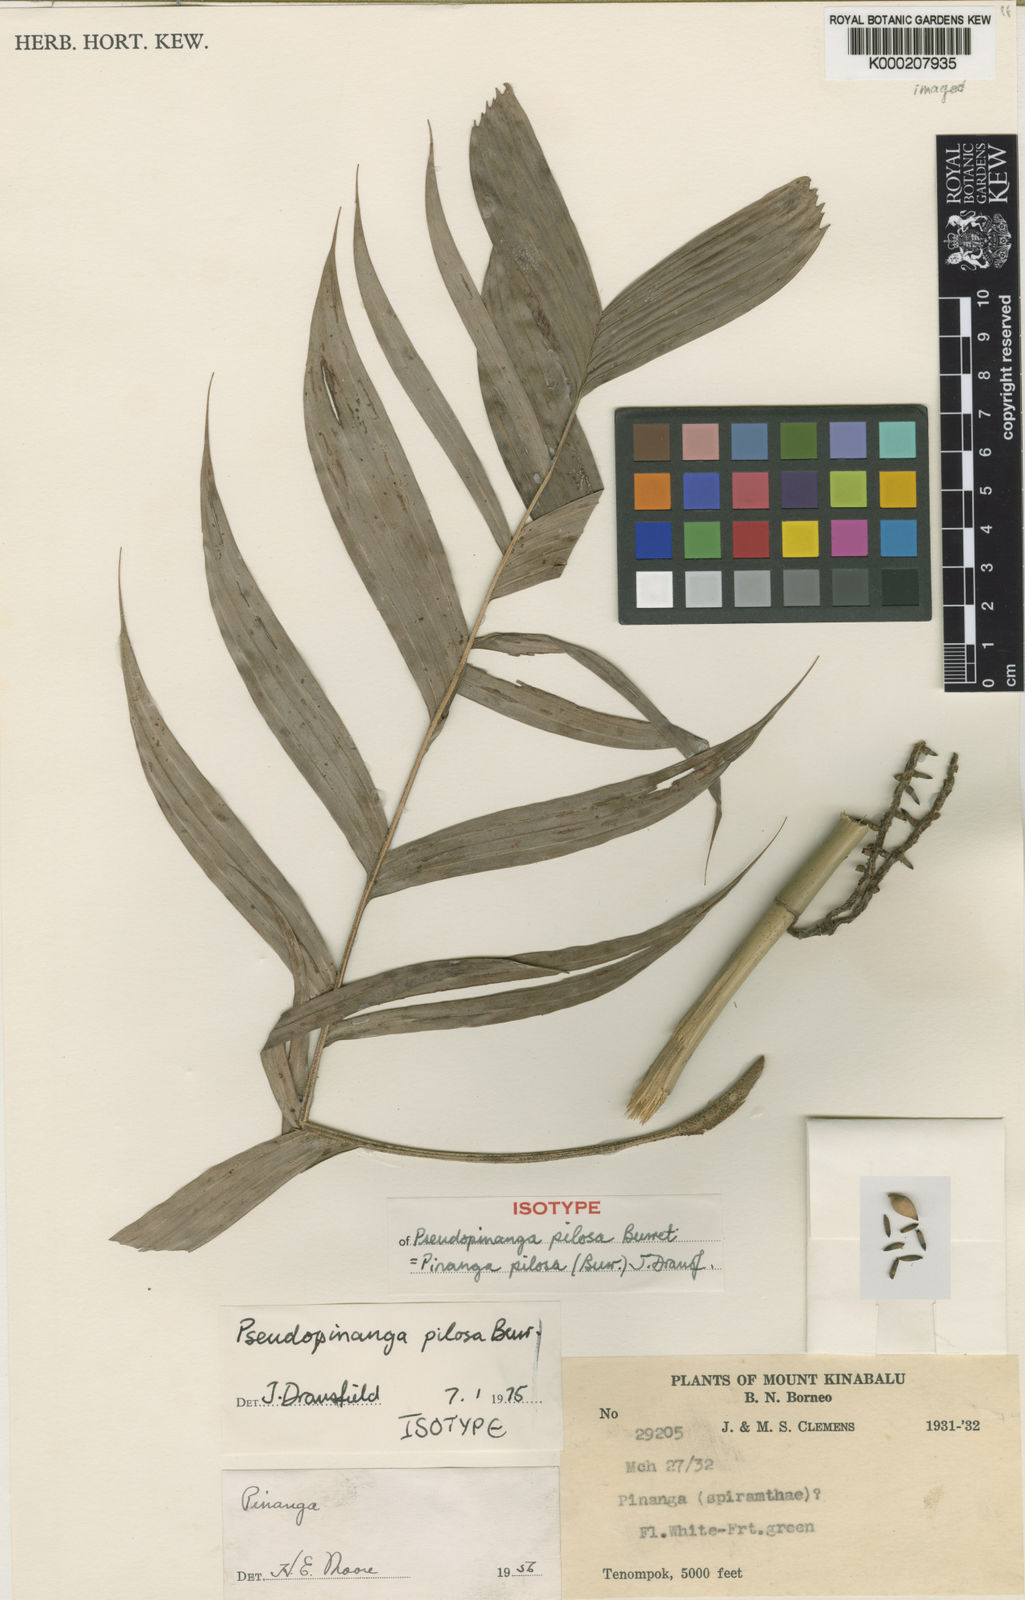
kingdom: Plantae
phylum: Tracheophyta
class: Liliopsida
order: Arecales
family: Arecaceae
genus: Pinanga
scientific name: Pinanga pilosa
